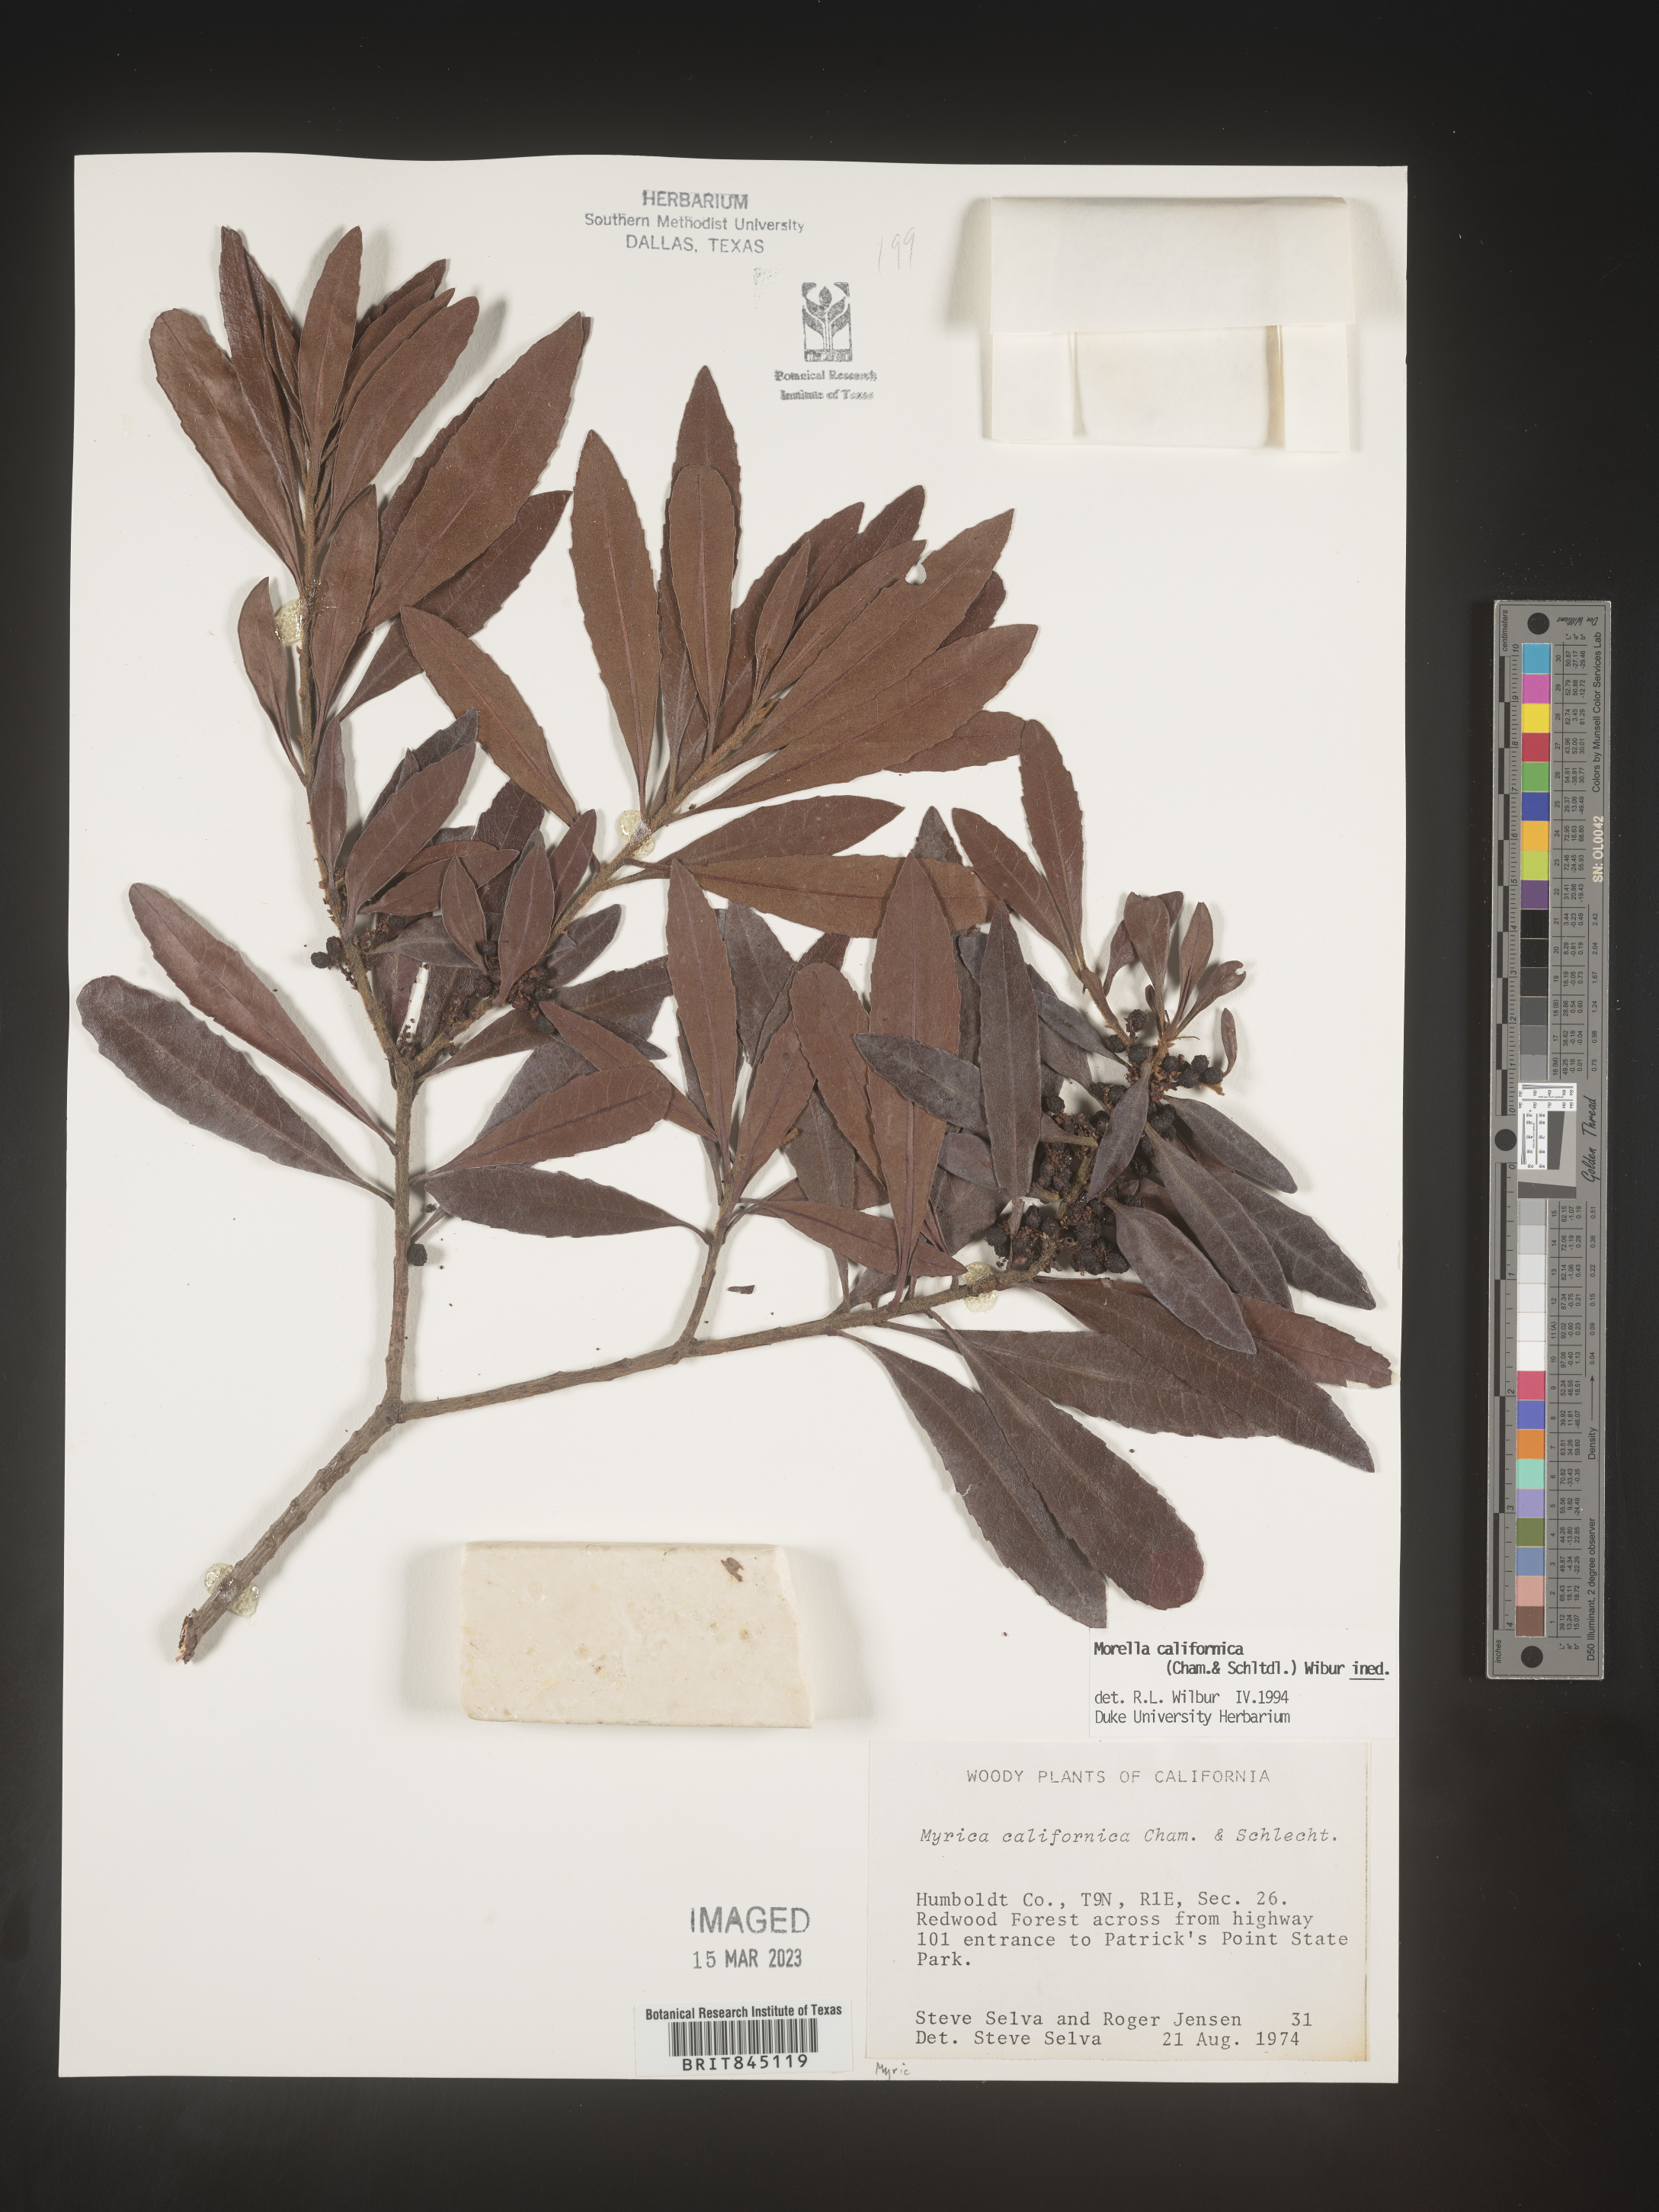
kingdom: Plantae
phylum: Tracheophyta
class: Magnoliopsida
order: Fagales
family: Myricaceae
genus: Morella
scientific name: Morella californica
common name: California wax-myrtle
